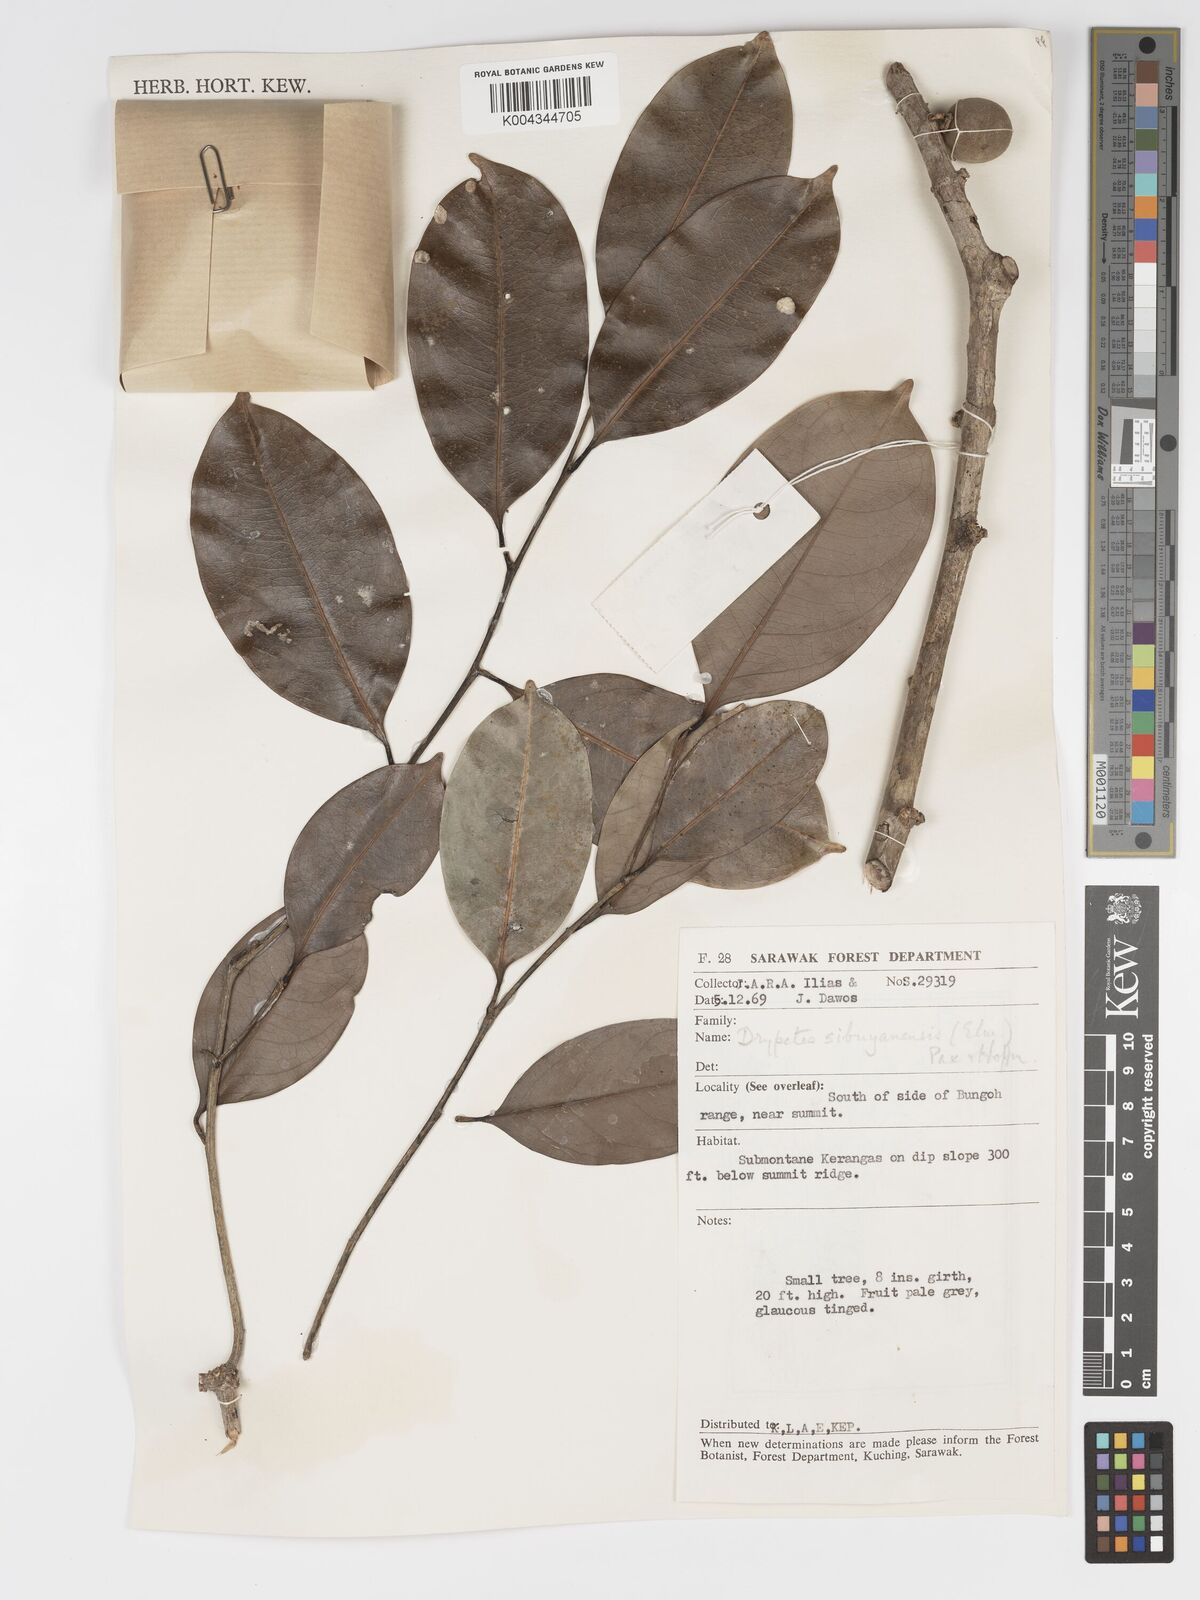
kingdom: Plantae
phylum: Tracheophyta
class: Magnoliopsida
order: Malpighiales
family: Putranjivaceae
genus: Drypetes
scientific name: Drypetes sibuyanensis
